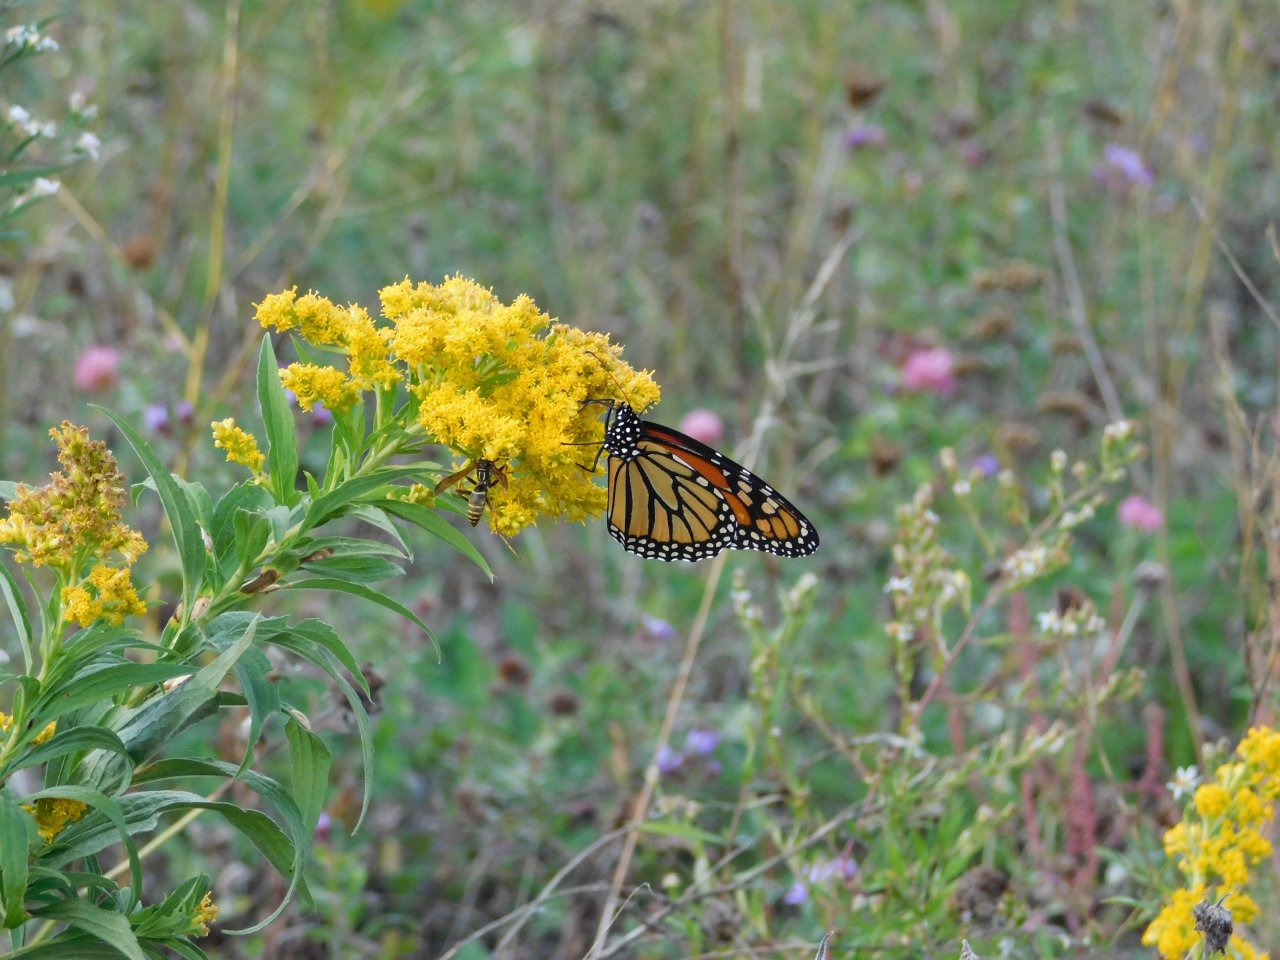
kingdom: Animalia
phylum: Arthropoda
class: Insecta
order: Lepidoptera
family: Nymphalidae
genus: Danaus
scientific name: Danaus plexippus
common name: Monarch
